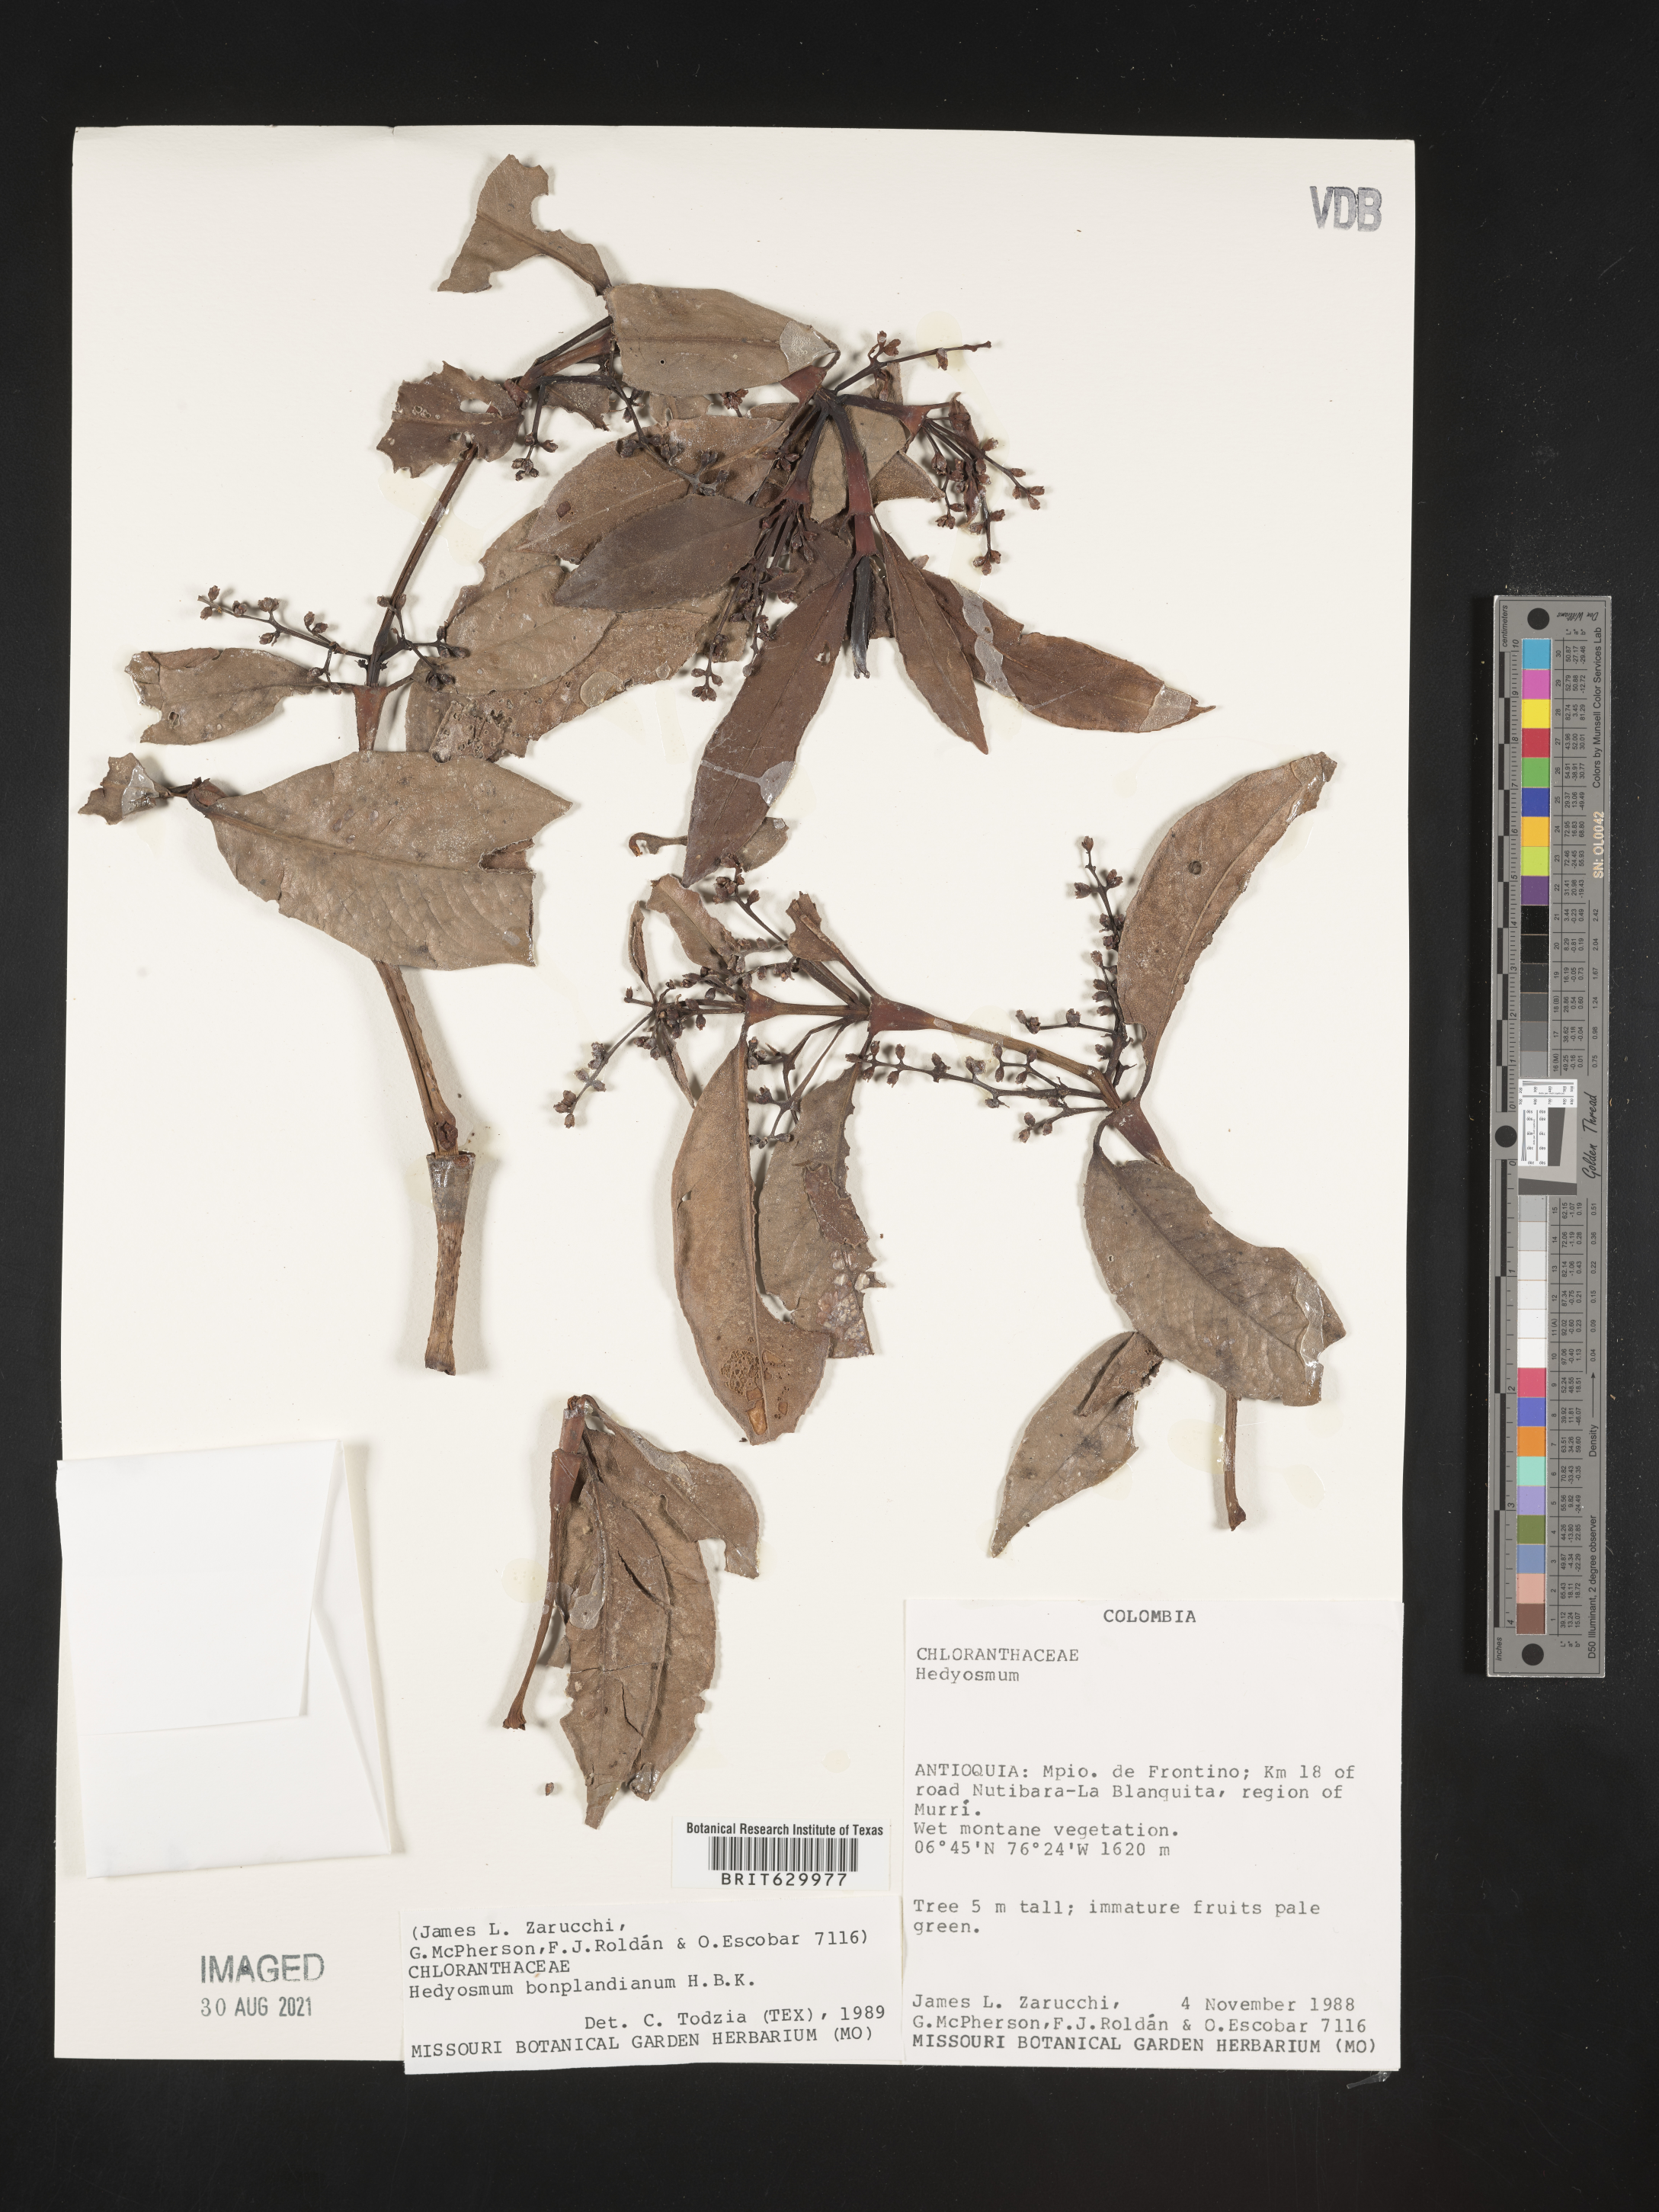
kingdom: Plantae
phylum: Tracheophyta
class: Magnoliopsida
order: Chloranthales
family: Chloranthaceae
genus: Hedyosmum
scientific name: Hedyosmum bonplandianum
